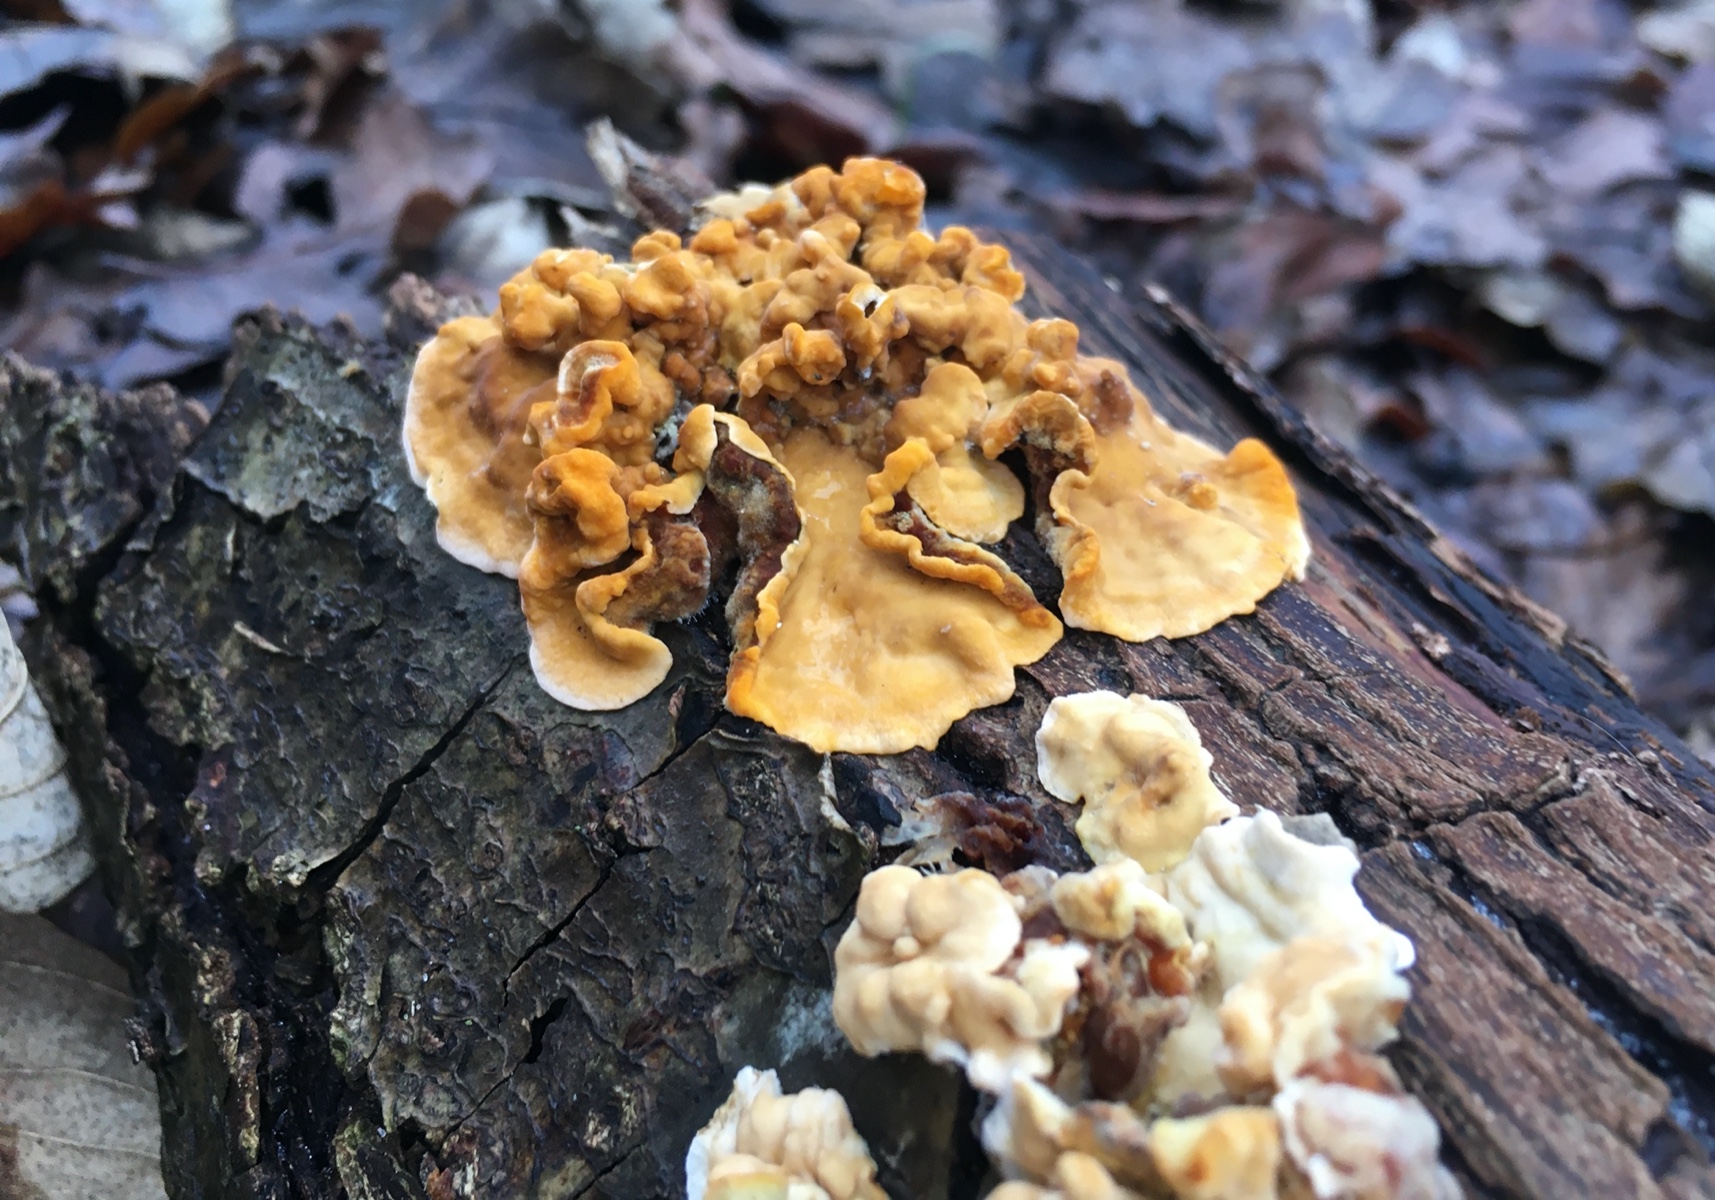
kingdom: Fungi
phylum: Basidiomycota
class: Agaricomycetes
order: Russulales
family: Stereaceae
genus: Stereum
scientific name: Stereum hirsutum
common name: håret lædersvamp
